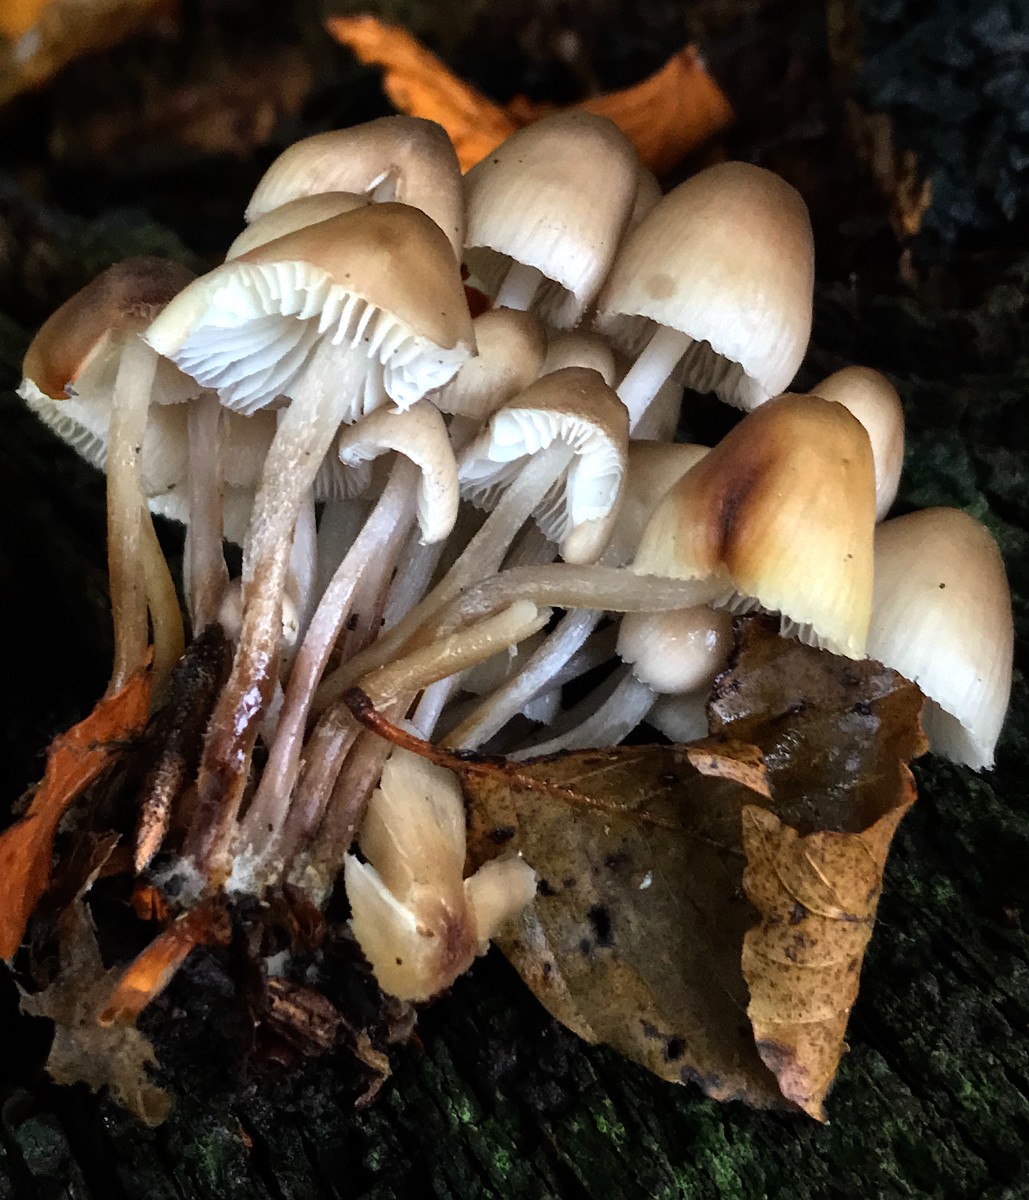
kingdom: Fungi
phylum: Basidiomycota
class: Agaricomycetes
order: Agaricales
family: Mycenaceae
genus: Mycena
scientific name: Mycena inclinata
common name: nikkende huesvamp
